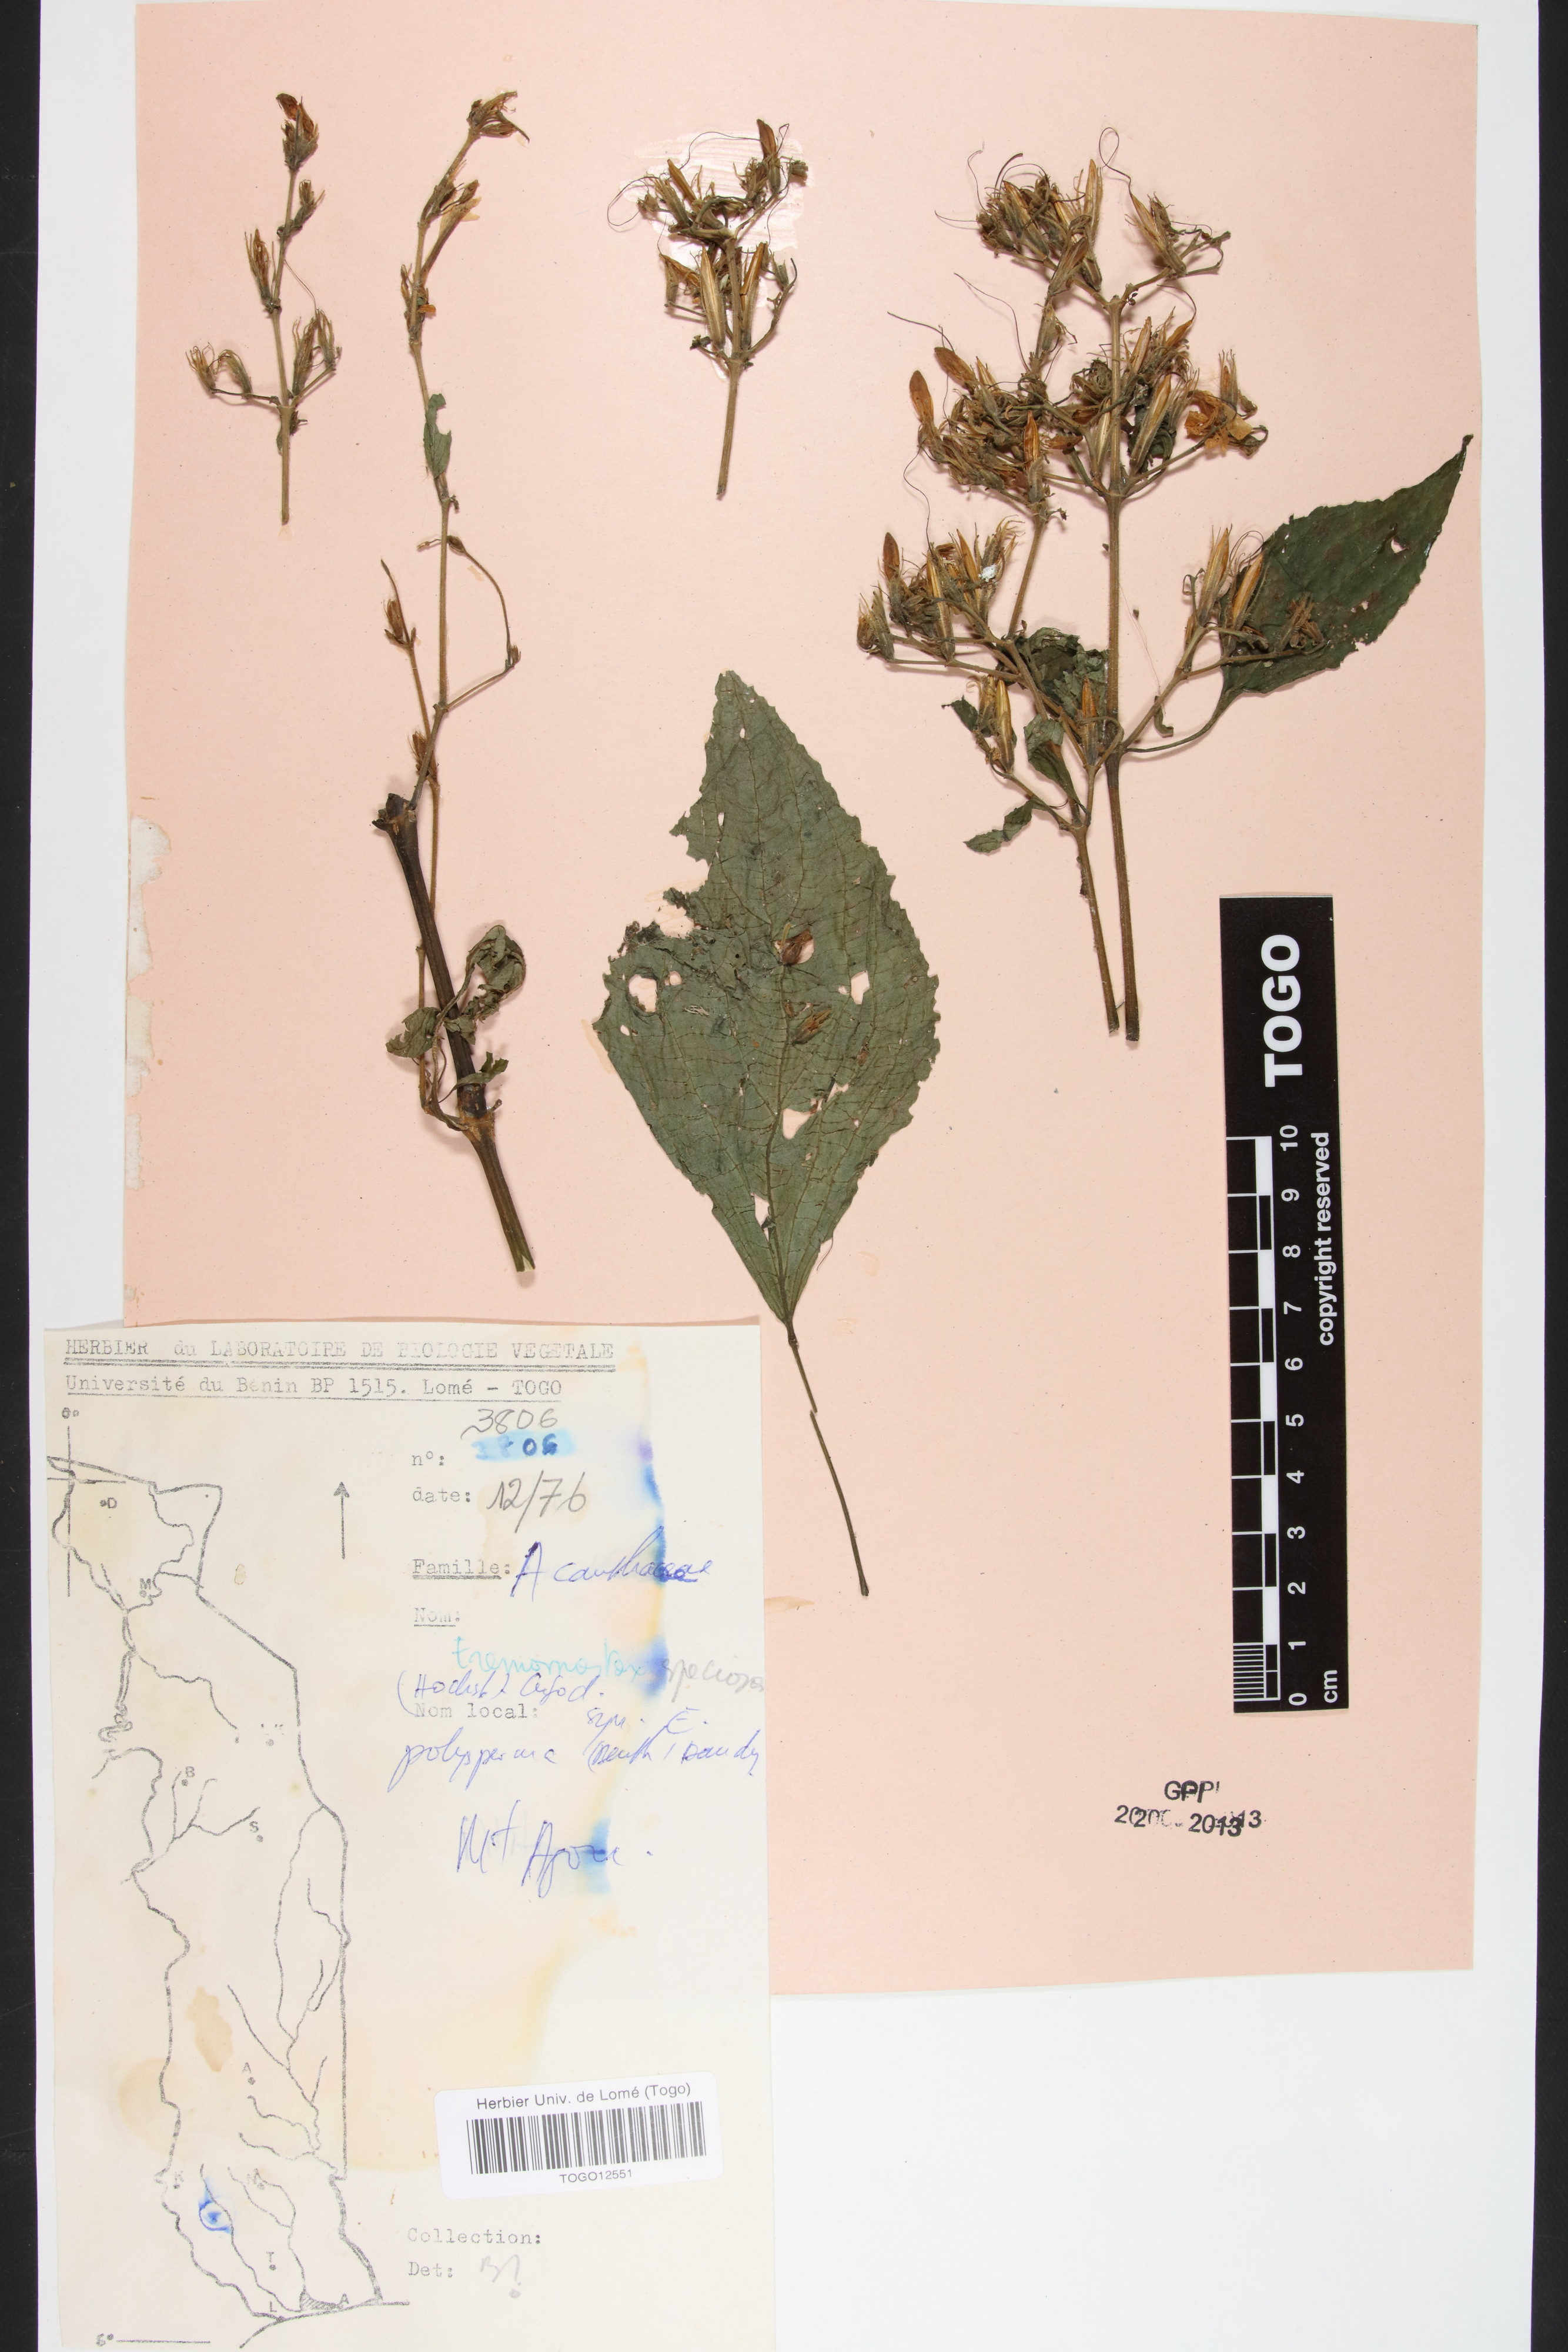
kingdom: Plantae
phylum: Tracheophyta
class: Magnoliopsida
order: Lamiales
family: Acanthaceae
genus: Eremomastax
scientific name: Eremomastax speciosa
